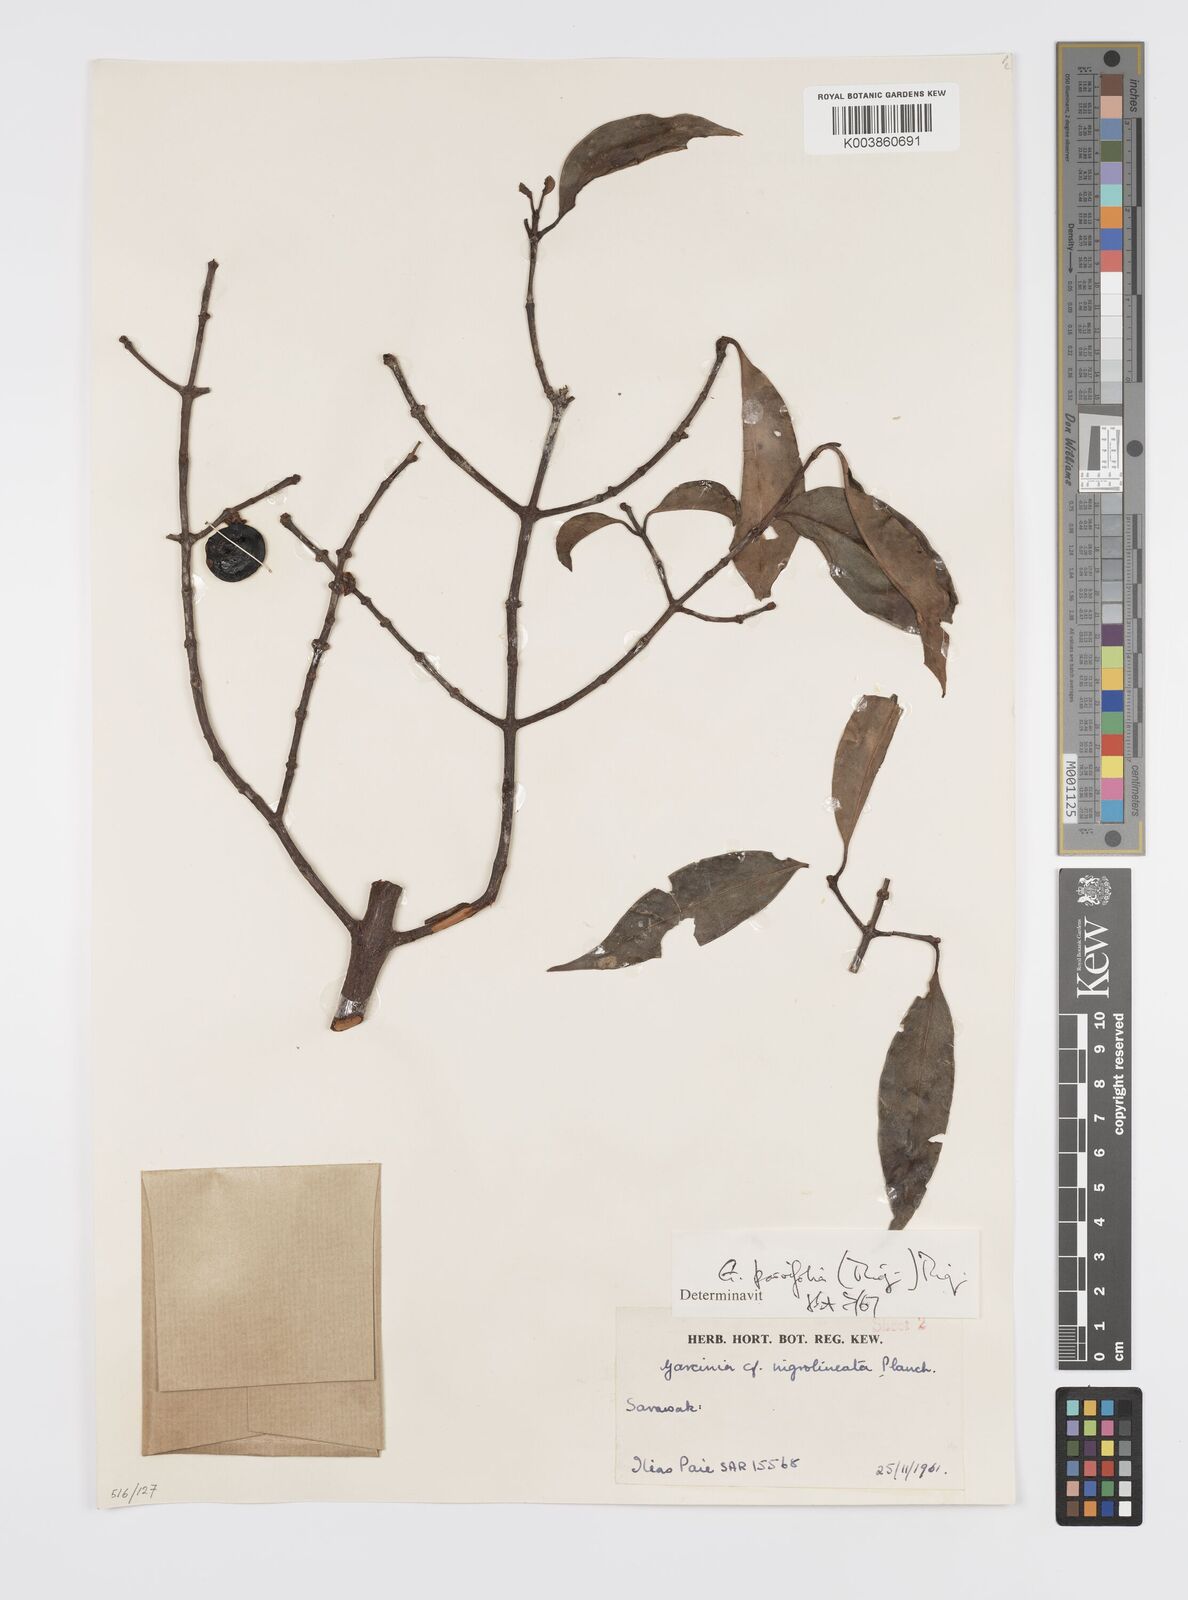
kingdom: Plantae
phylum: Tracheophyta
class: Magnoliopsida
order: Malpighiales
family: Clusiaceae
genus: Garcinia
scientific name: Garcinia parvifolia
